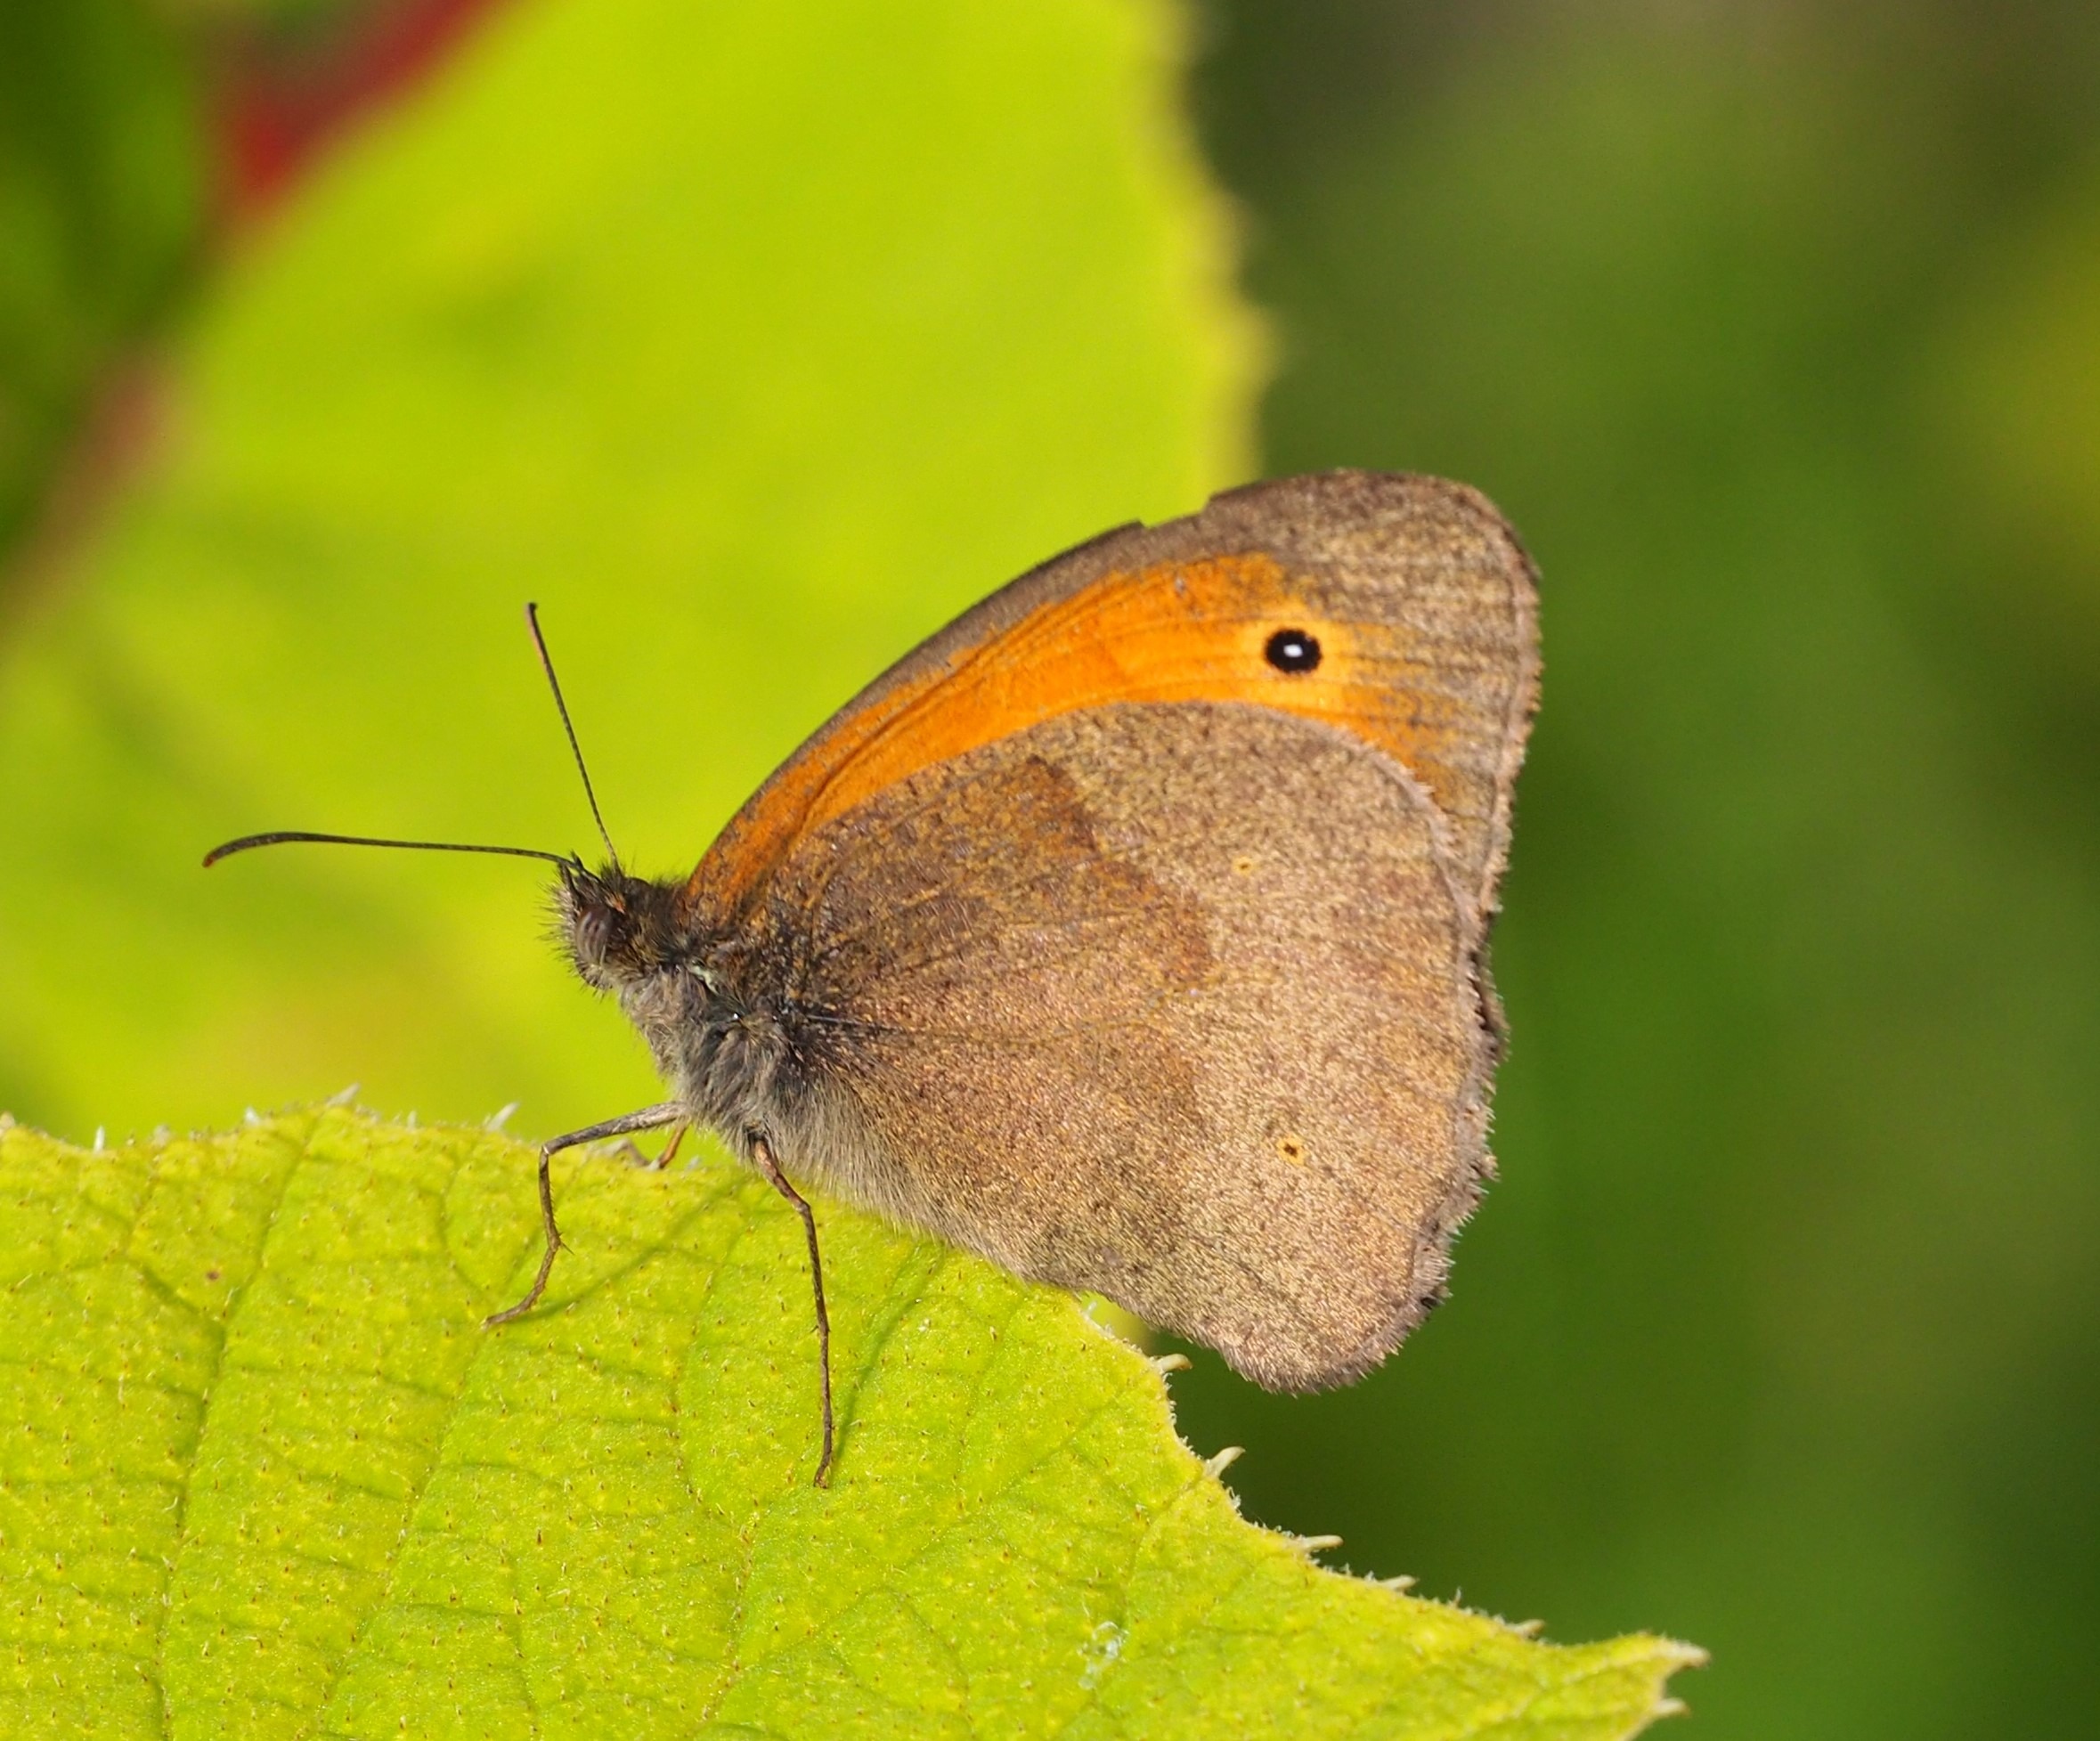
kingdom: Animalia
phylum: Arthropoda
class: Insecta
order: Lepidoptera
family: Nymphalidae
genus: Maniola
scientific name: Maniola jurtina
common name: Græsrandøje
